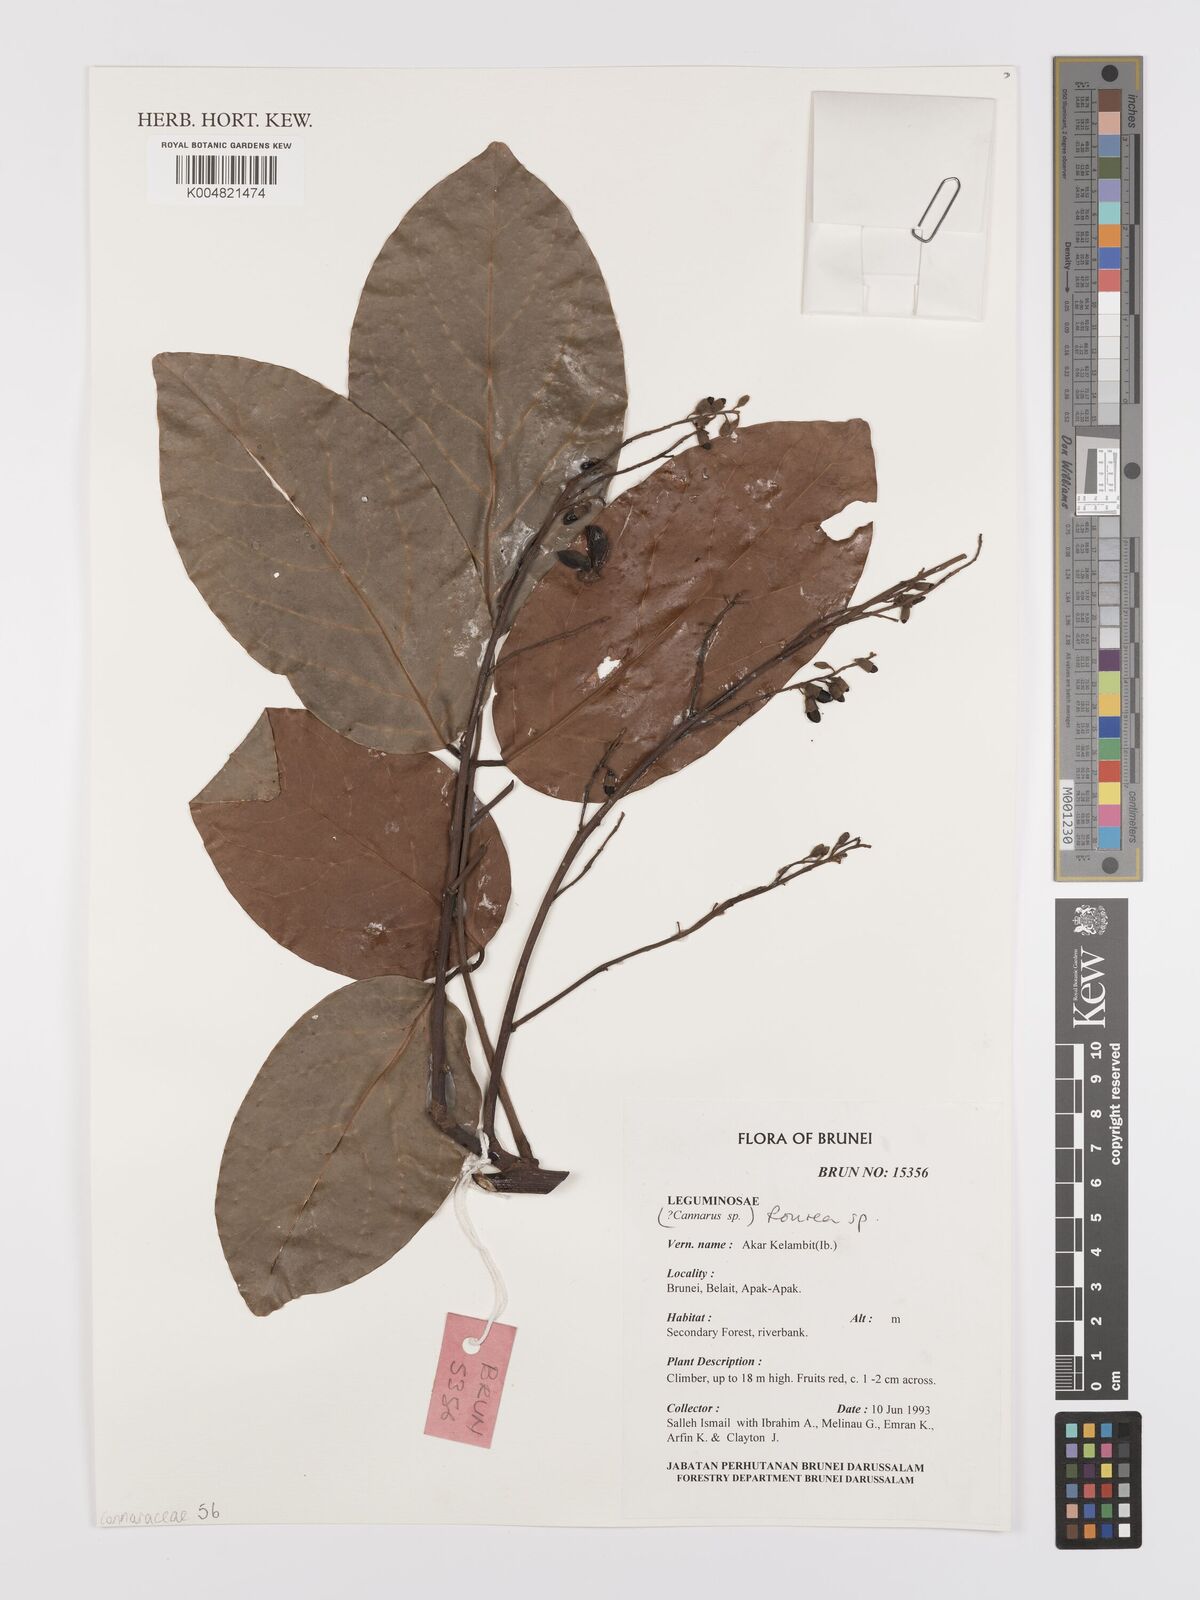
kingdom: Plantae
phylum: Tracheophyta
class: Magnoliopsida
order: Oxalidales
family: Connaraceae
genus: Rourea
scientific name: Rourea
